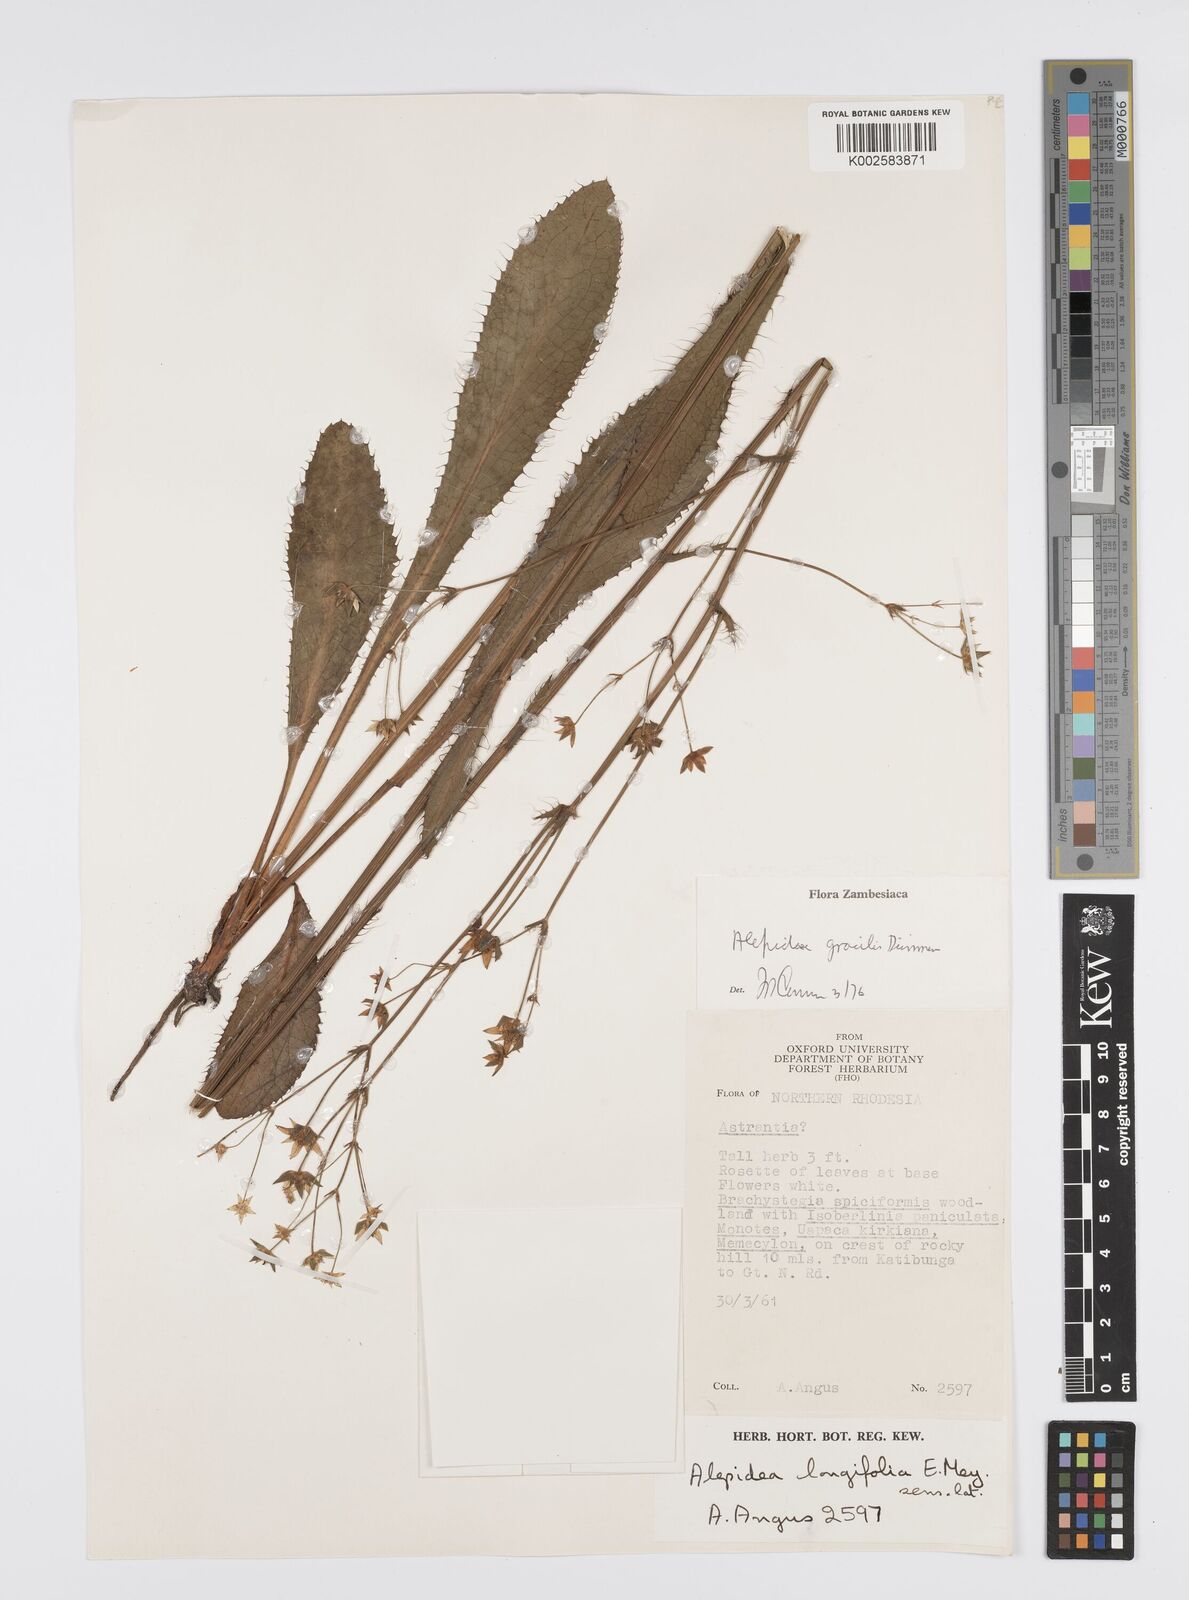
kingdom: Plantae
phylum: Tracheophyta
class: Magnoliopsida
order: Apiales
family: Apiaceae
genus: Alepidea
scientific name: Alepidea
